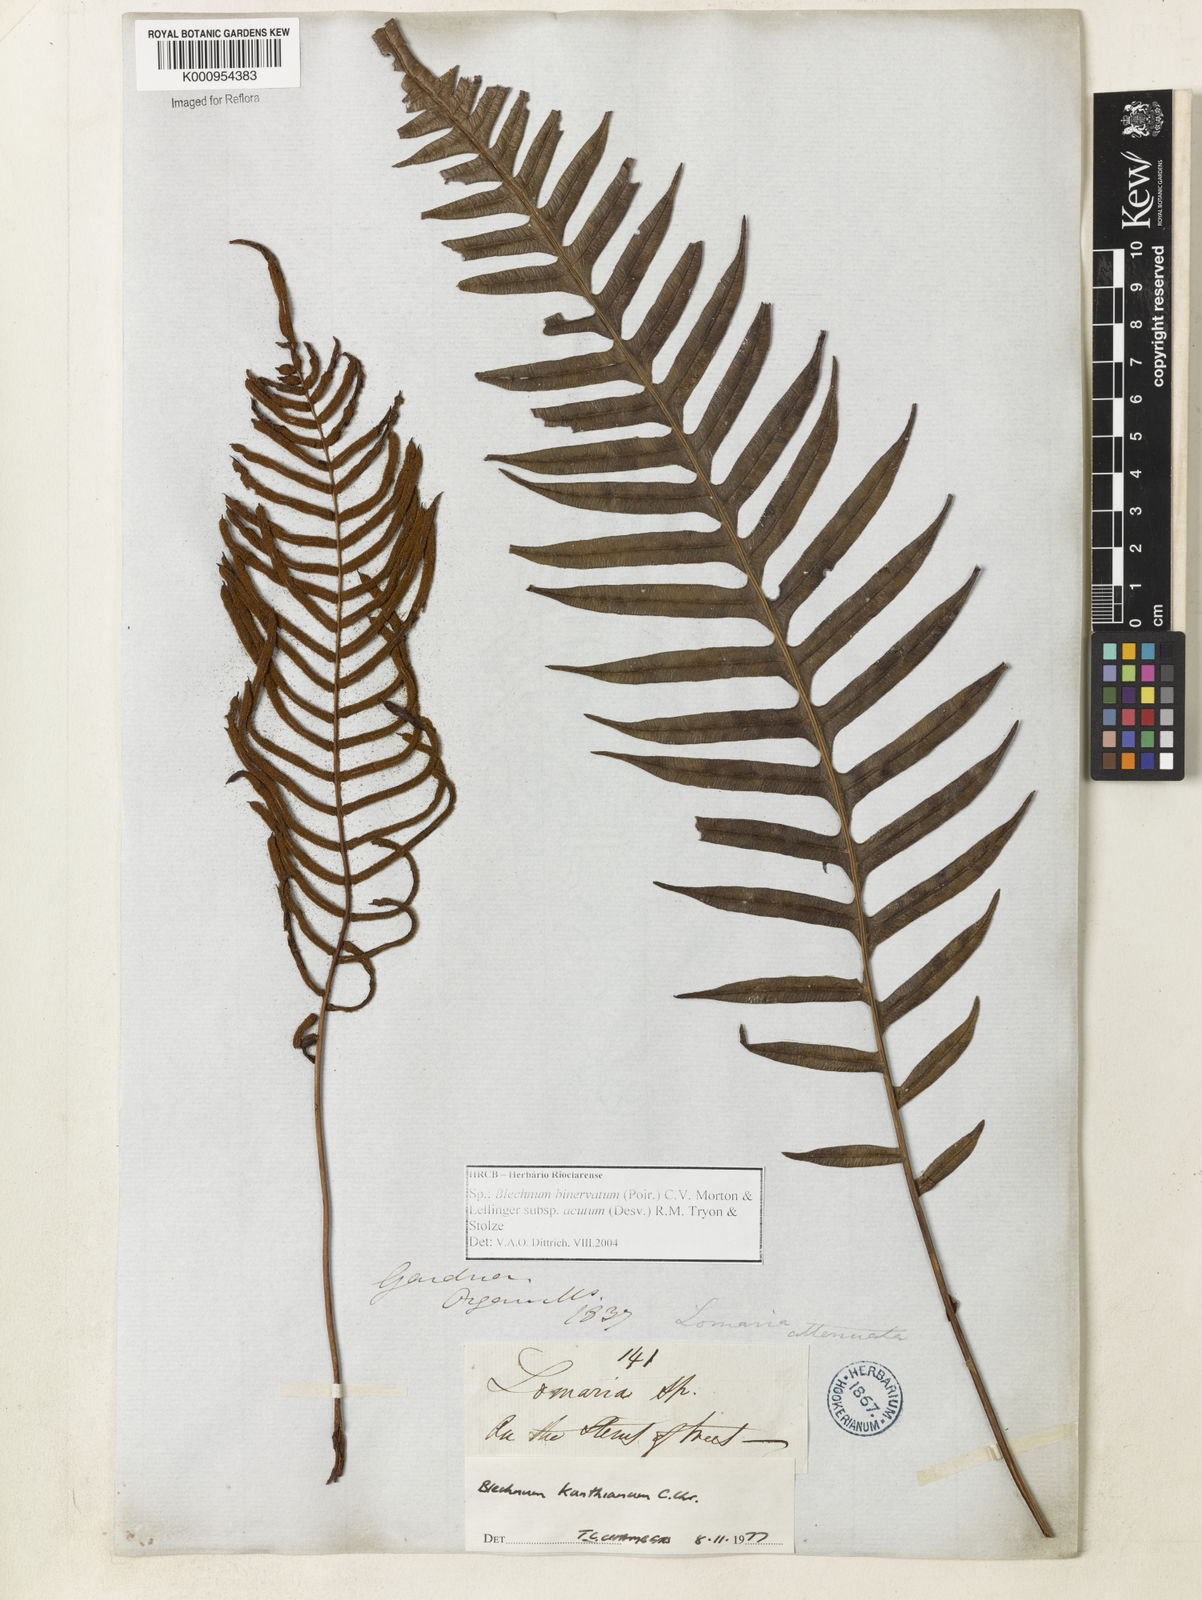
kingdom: Plantae
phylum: Tracheophyta
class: Polypodiopsida
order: Polypodiales
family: Blechnaceae
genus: Lomaridium
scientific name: Lomaridium acutum
